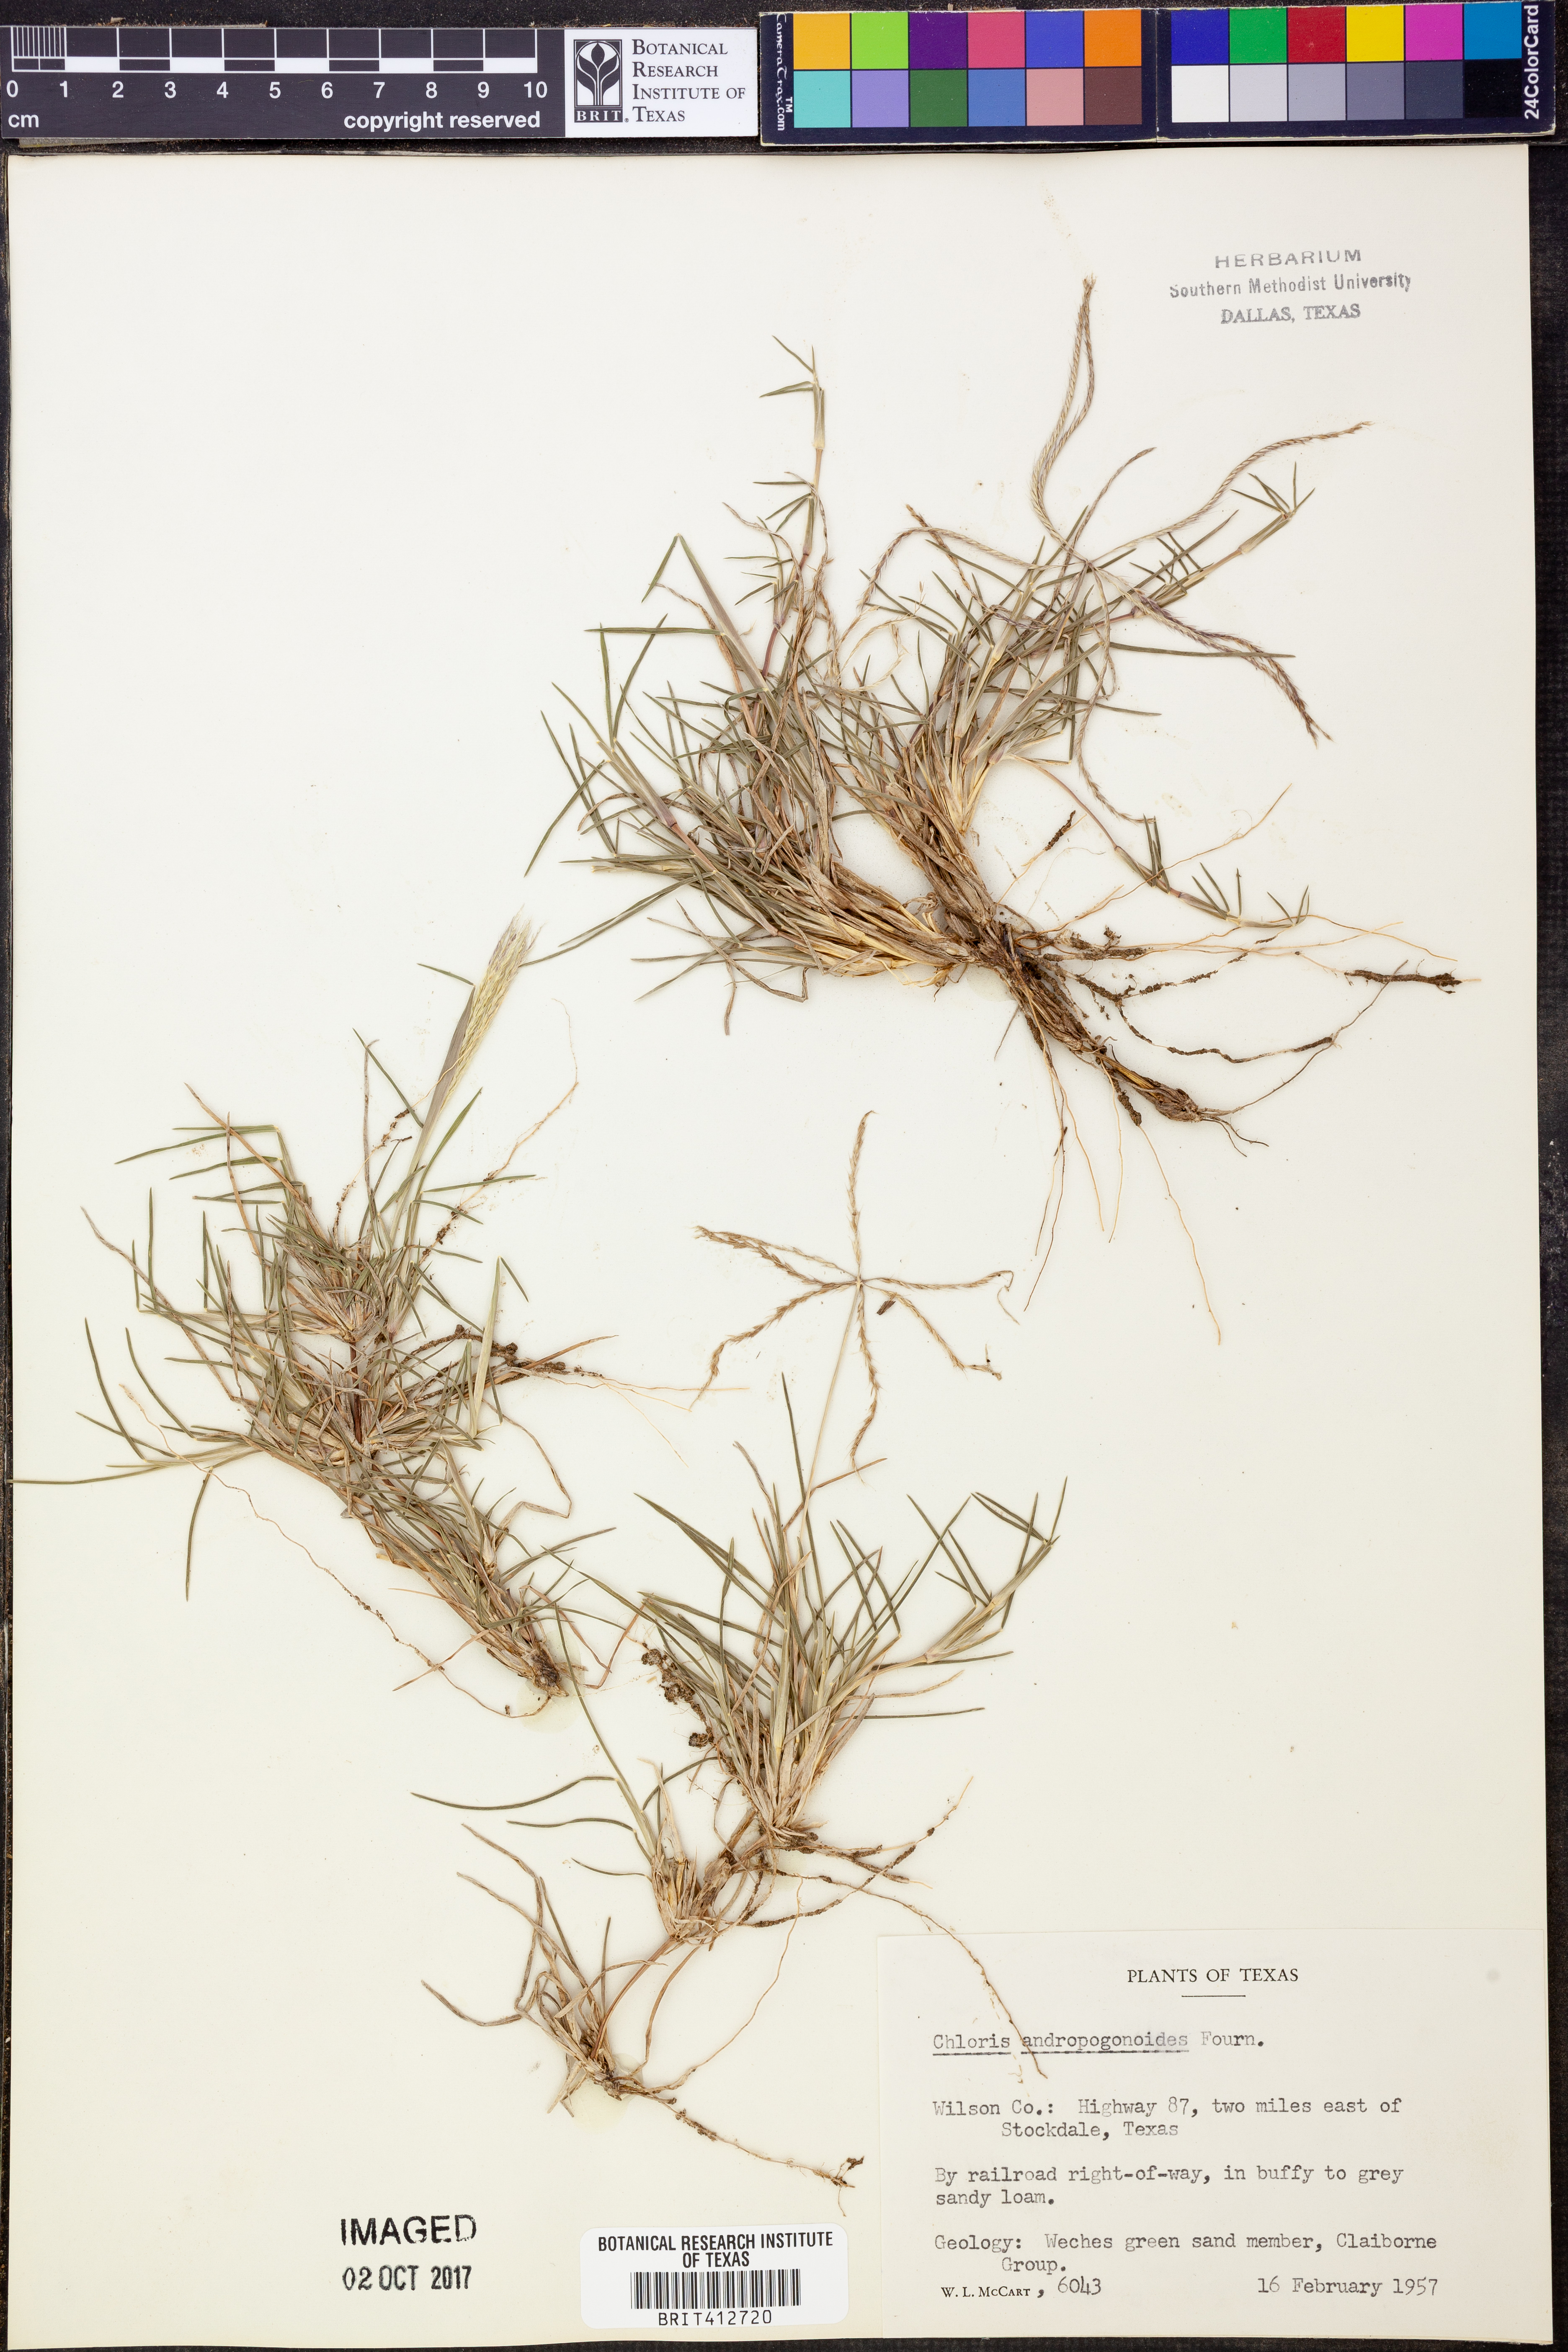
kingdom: Plantae
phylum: Tracheophyta
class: Liliopsida
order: Poales
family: Poaceae
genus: Chloris
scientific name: Chloris andropogonoides
